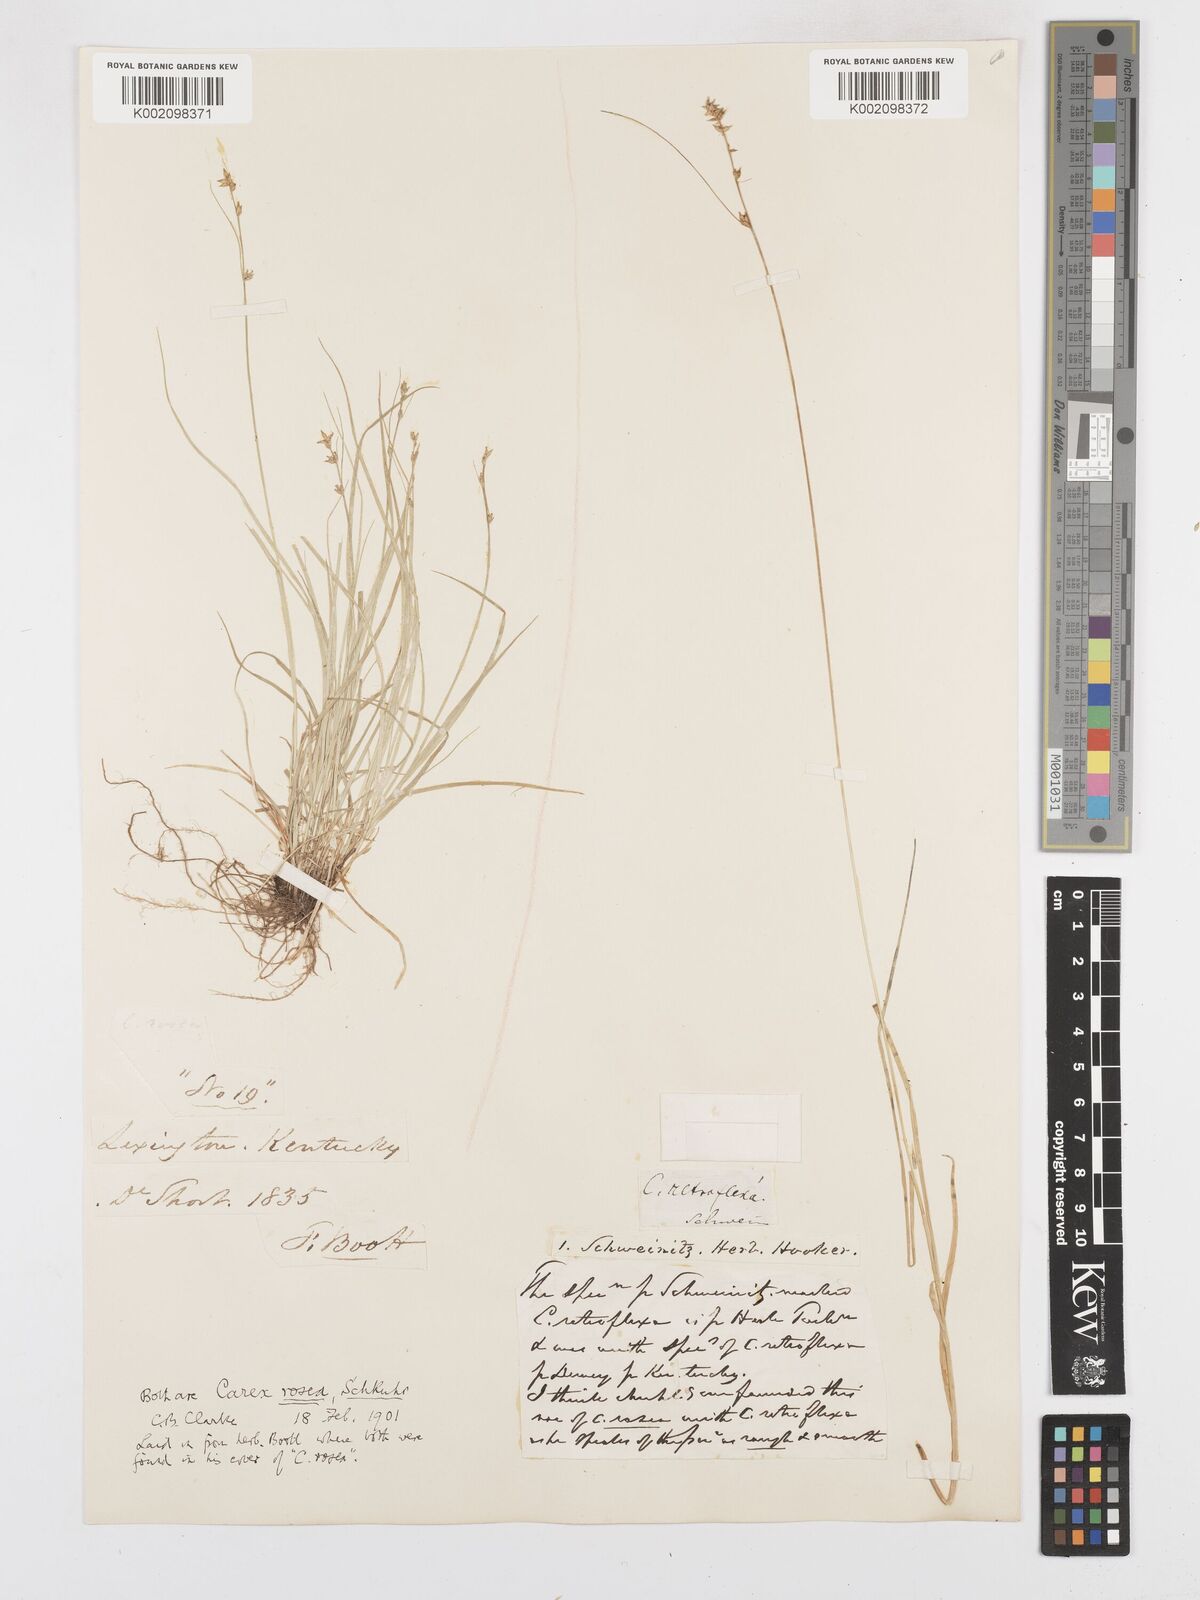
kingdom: Plantae
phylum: Tracheophyta
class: Liliopsida
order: Poales
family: Cyperaceae
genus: Carex
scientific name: Carex rosea
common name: Curly-styled wood sedge
